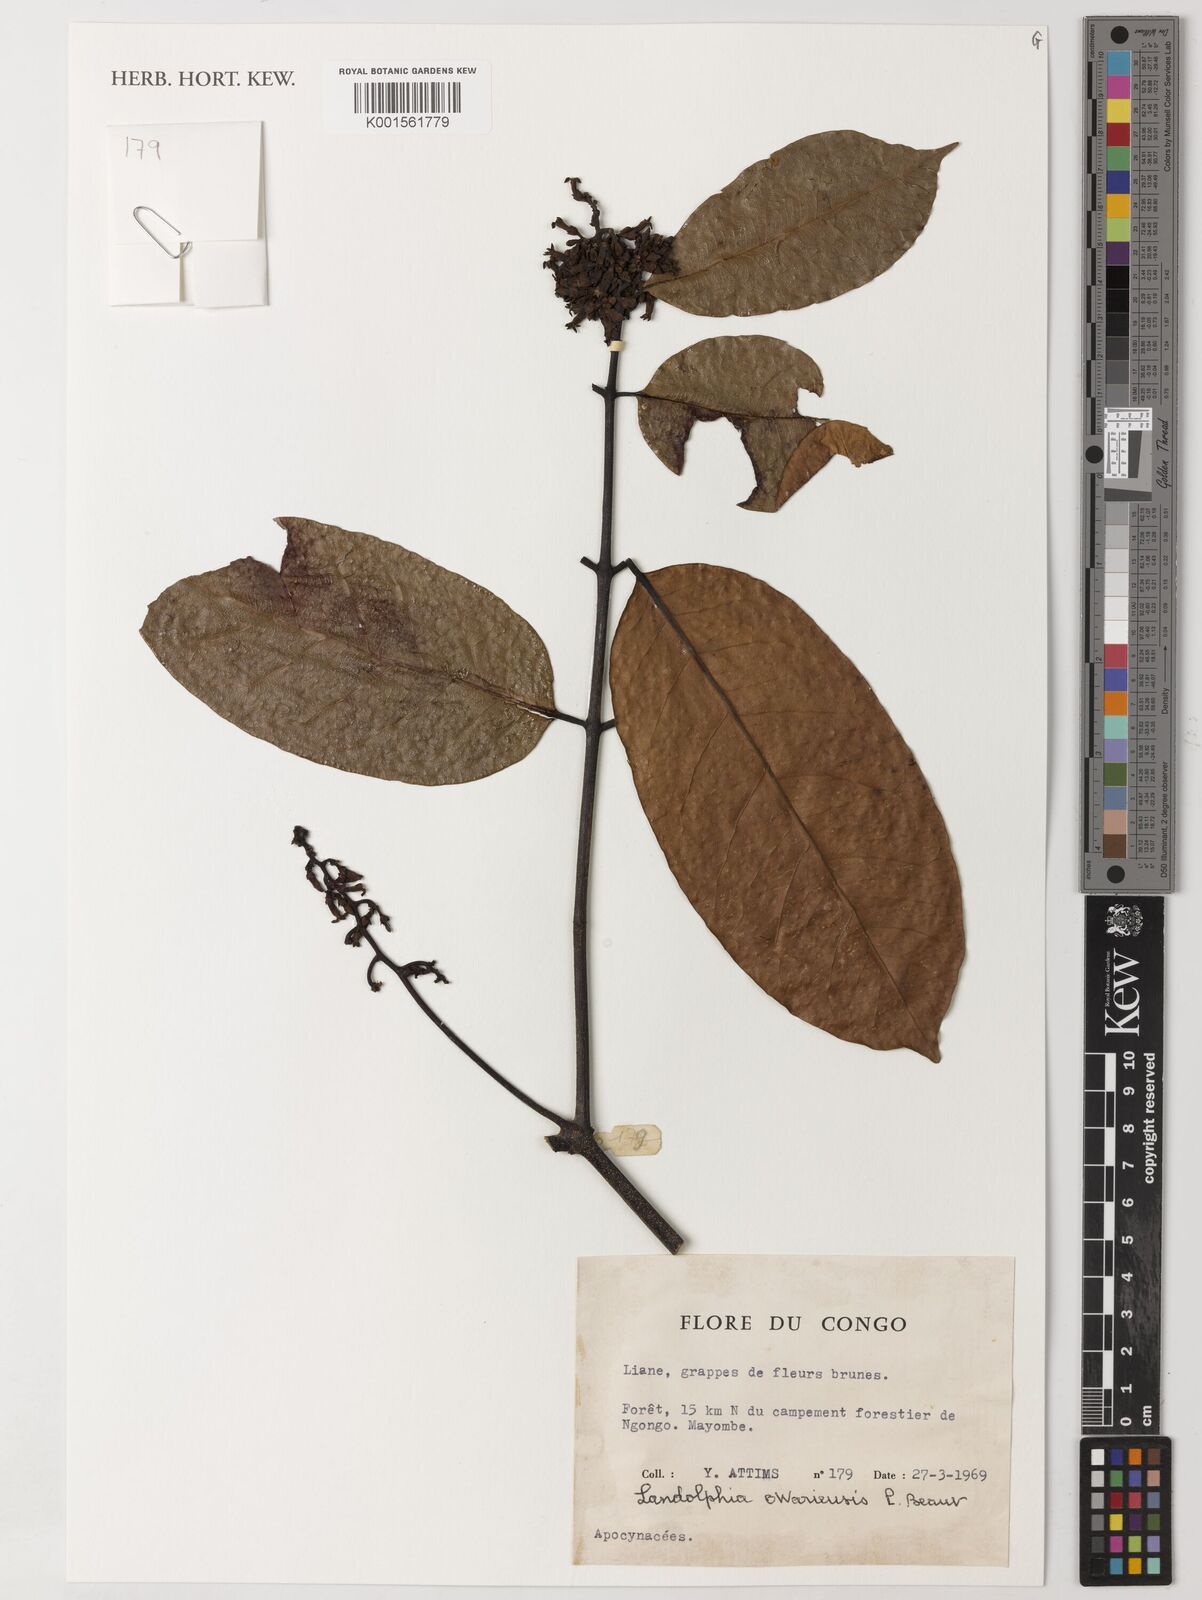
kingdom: Plantae
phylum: Tracheophyta
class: Magnoliopsida
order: Gentianales
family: Apocynaceae
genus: Landolphia
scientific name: Landolphia owariensis
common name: White-ball-rubber
